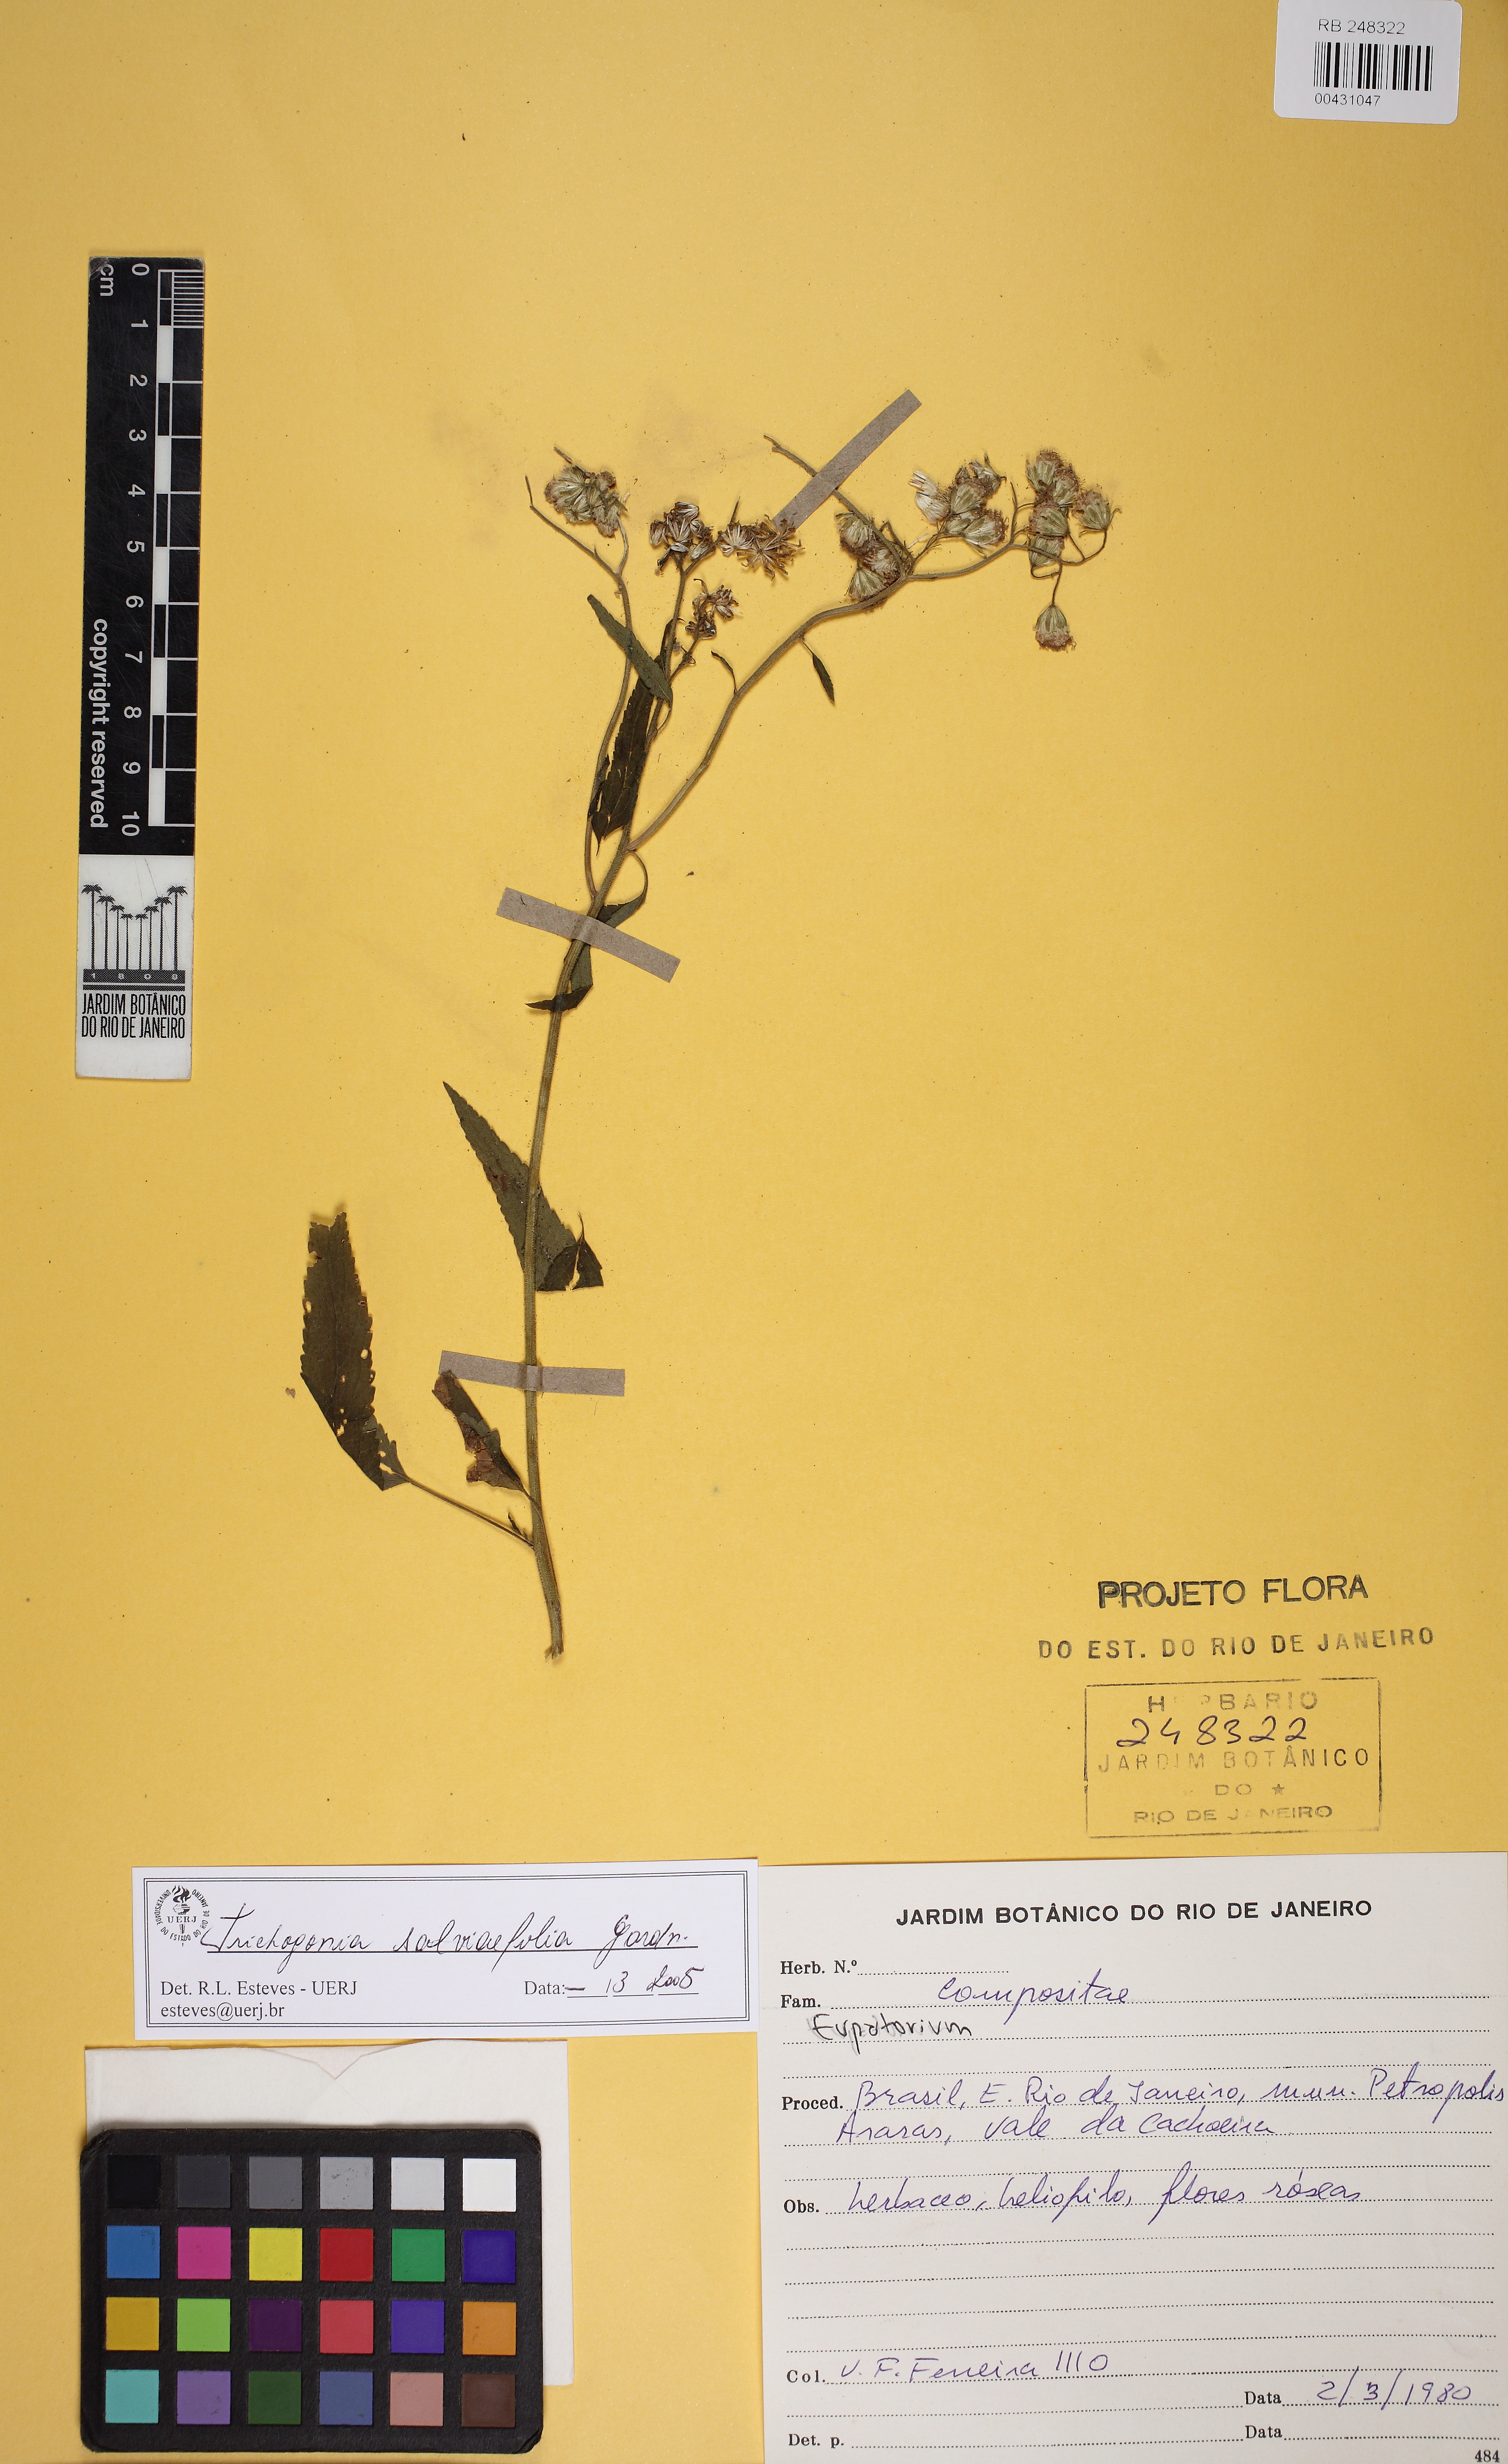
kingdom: Plantae
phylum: Tracheophyta
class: Magnoliopsida
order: Asterales
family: Asteraceae
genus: Trichogonia
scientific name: Trichogonia salviifolia
